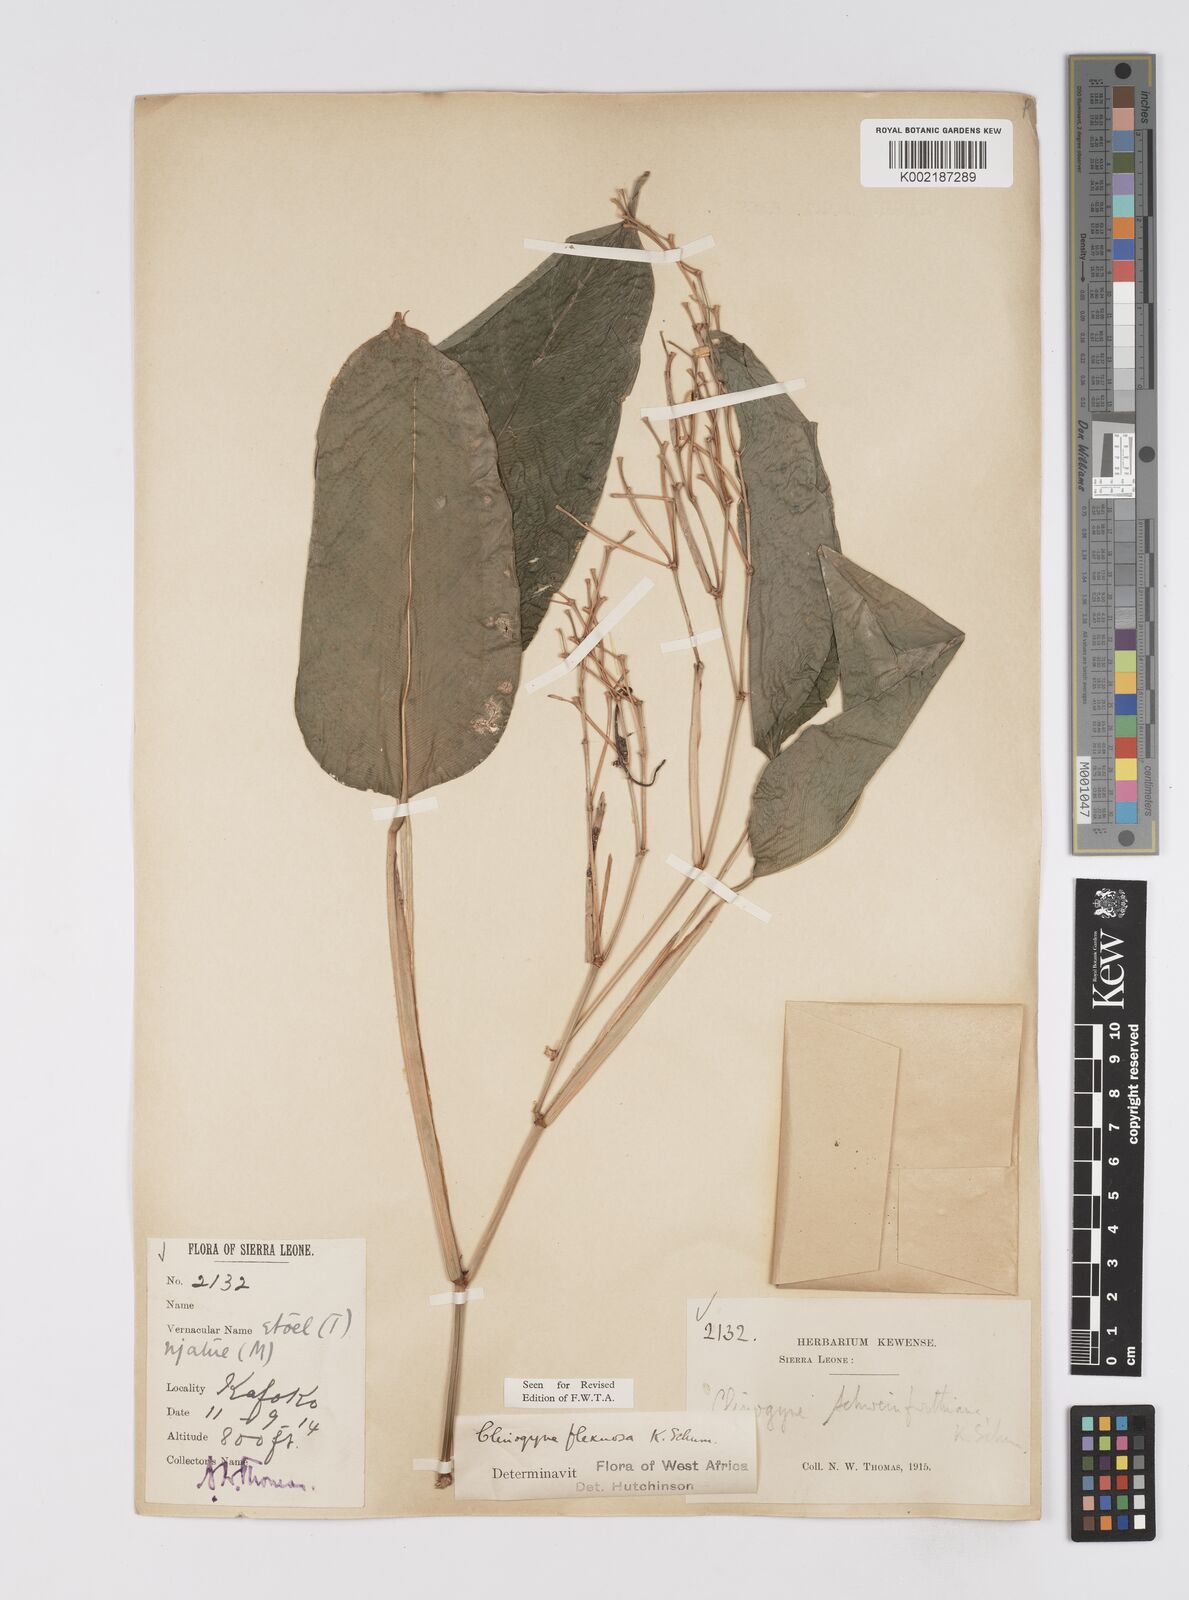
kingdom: Plantae
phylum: Tracheophyta
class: Liliopsida
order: Zingiberales
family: Marantaceae
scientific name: Marantaceae
